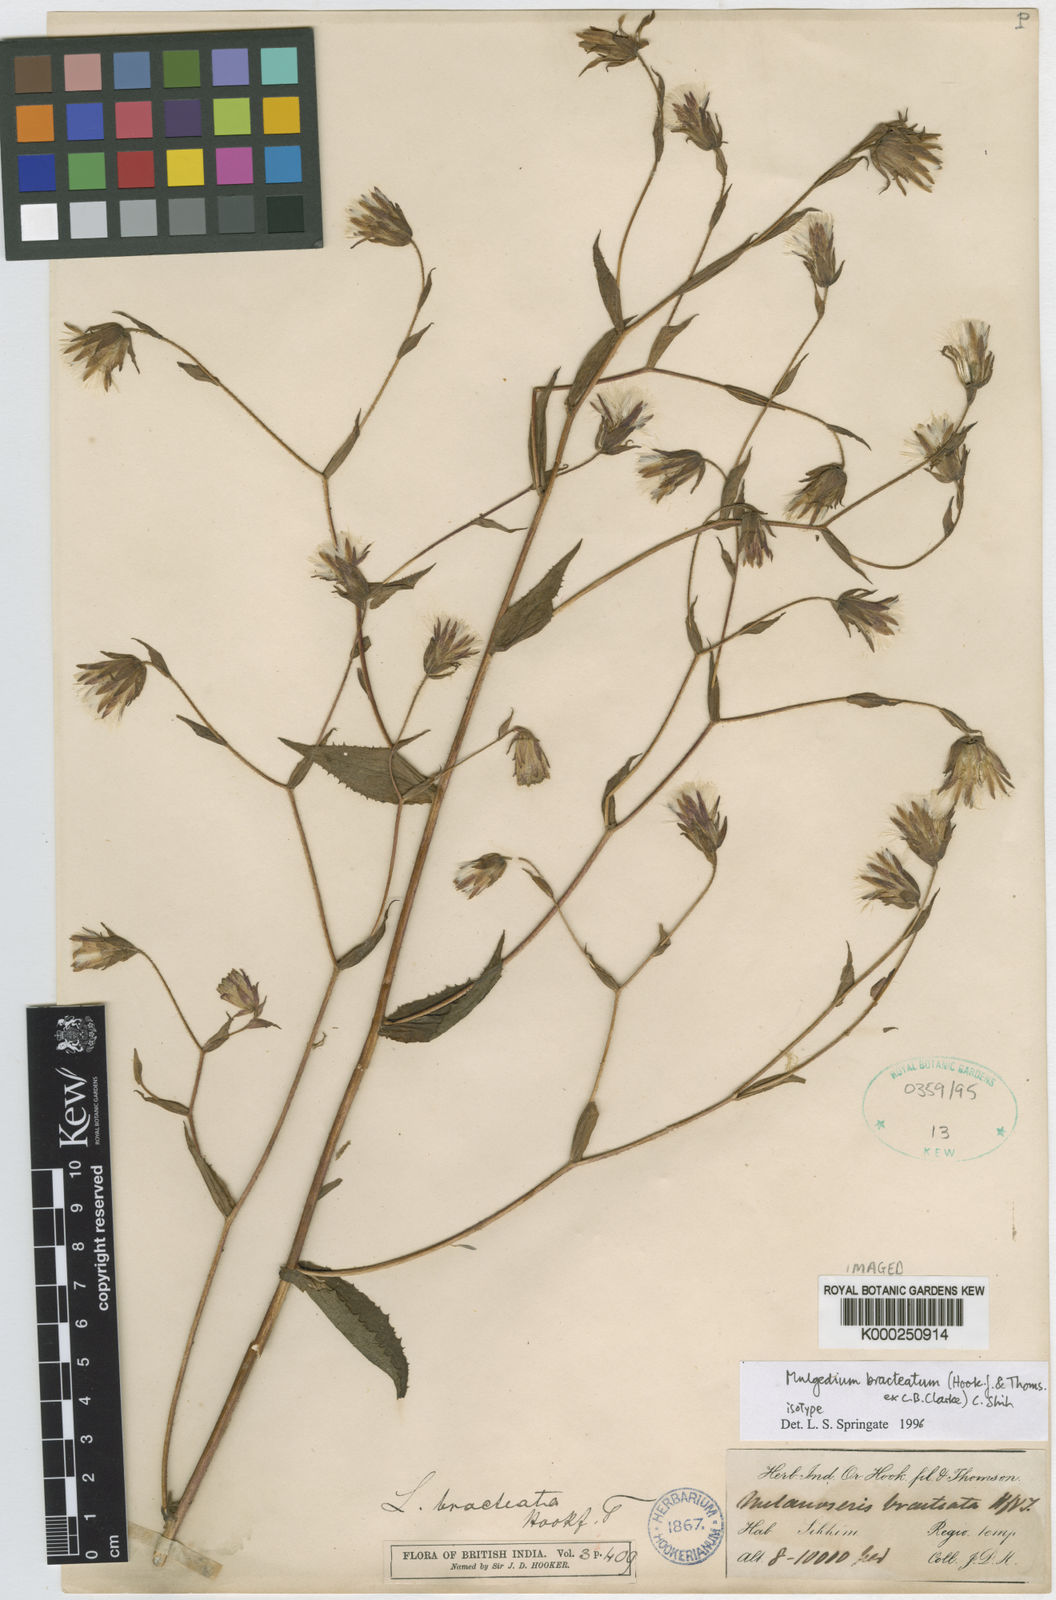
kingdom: Plantae
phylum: Tracheophyta
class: Magnoliopsida
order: Asterales
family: Asteraceae
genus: Lactuca
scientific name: Lactuca bracteata
